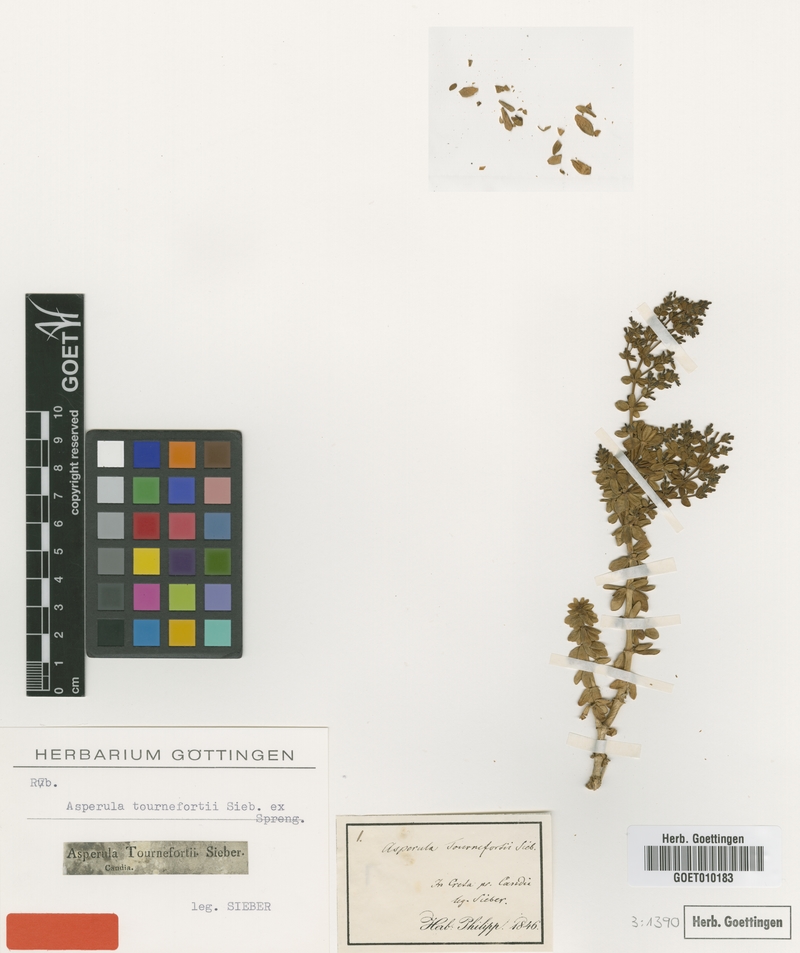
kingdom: Plantae
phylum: Tracheophyta
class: Magnoliopsida
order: Gentianales
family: Rubiaceae
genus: Asperula
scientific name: Asperula tournefortii
